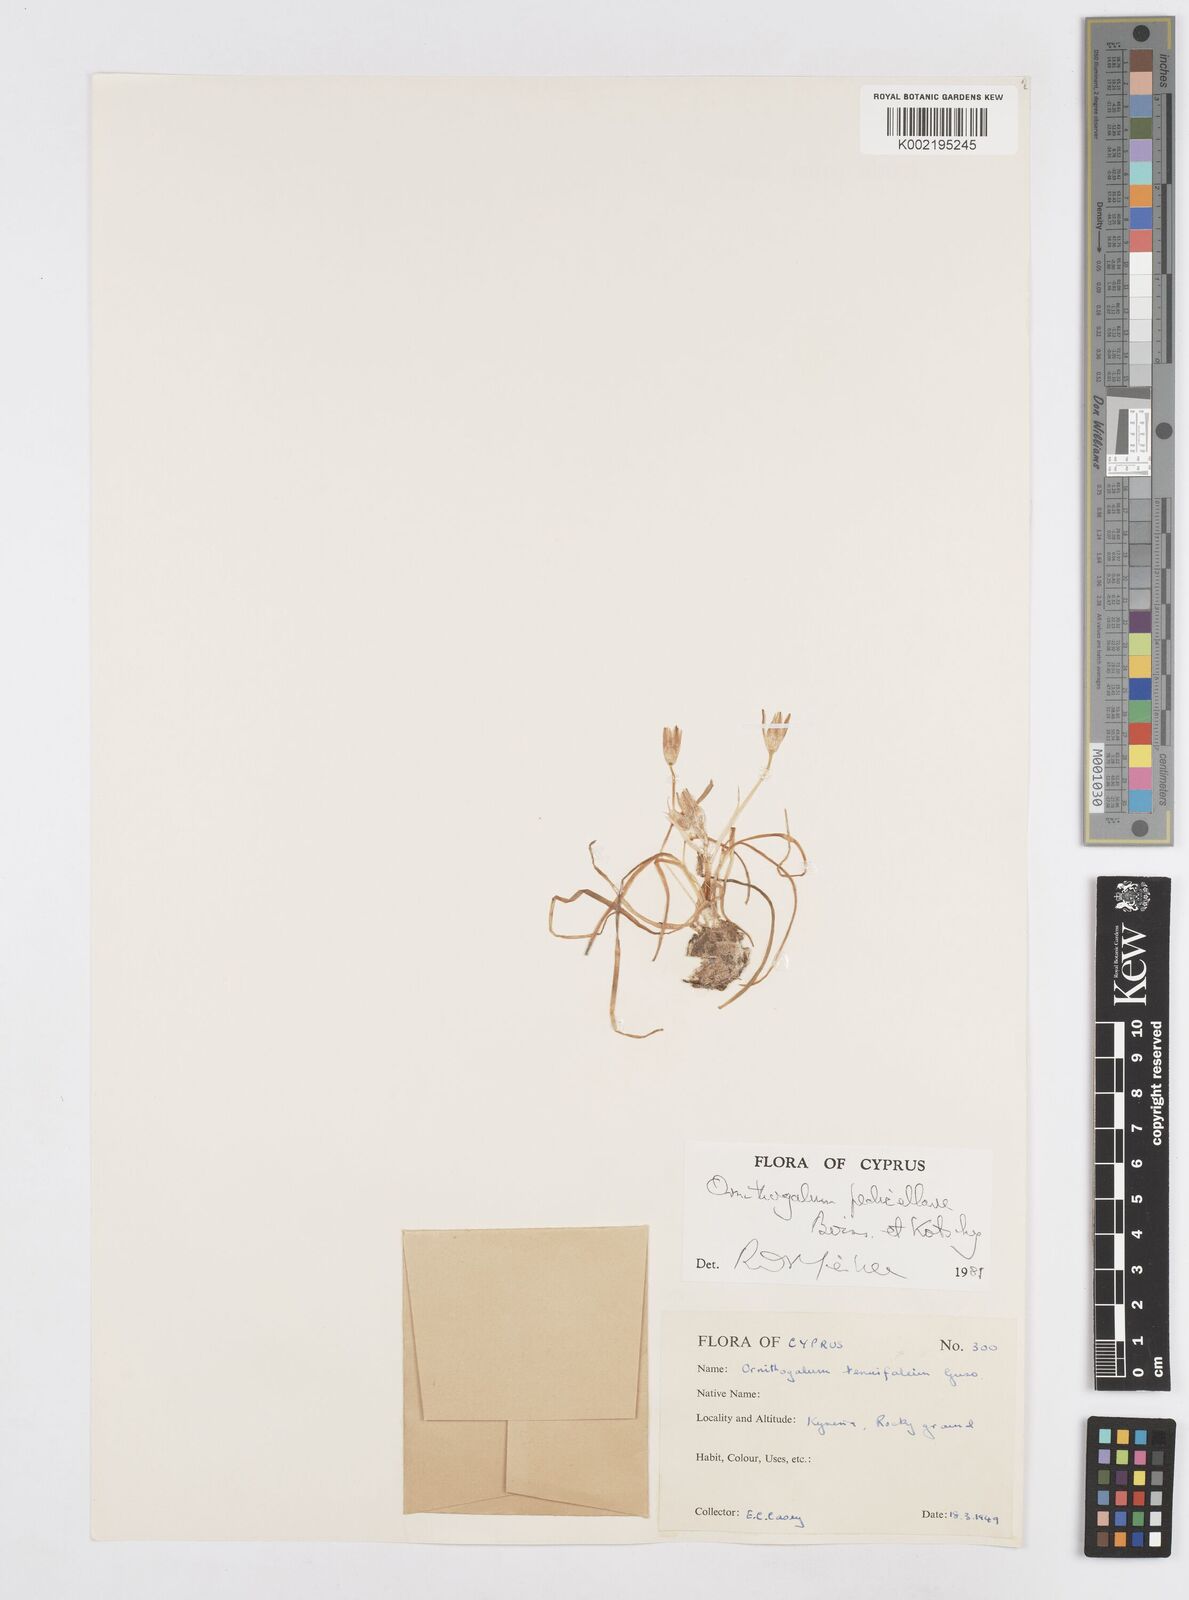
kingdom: Plantae
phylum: Tracheophyta
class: Liliopsida
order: Asparagales
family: Asparagaceae
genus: Ornithogalum
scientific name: Ornithogalum pedicellare
